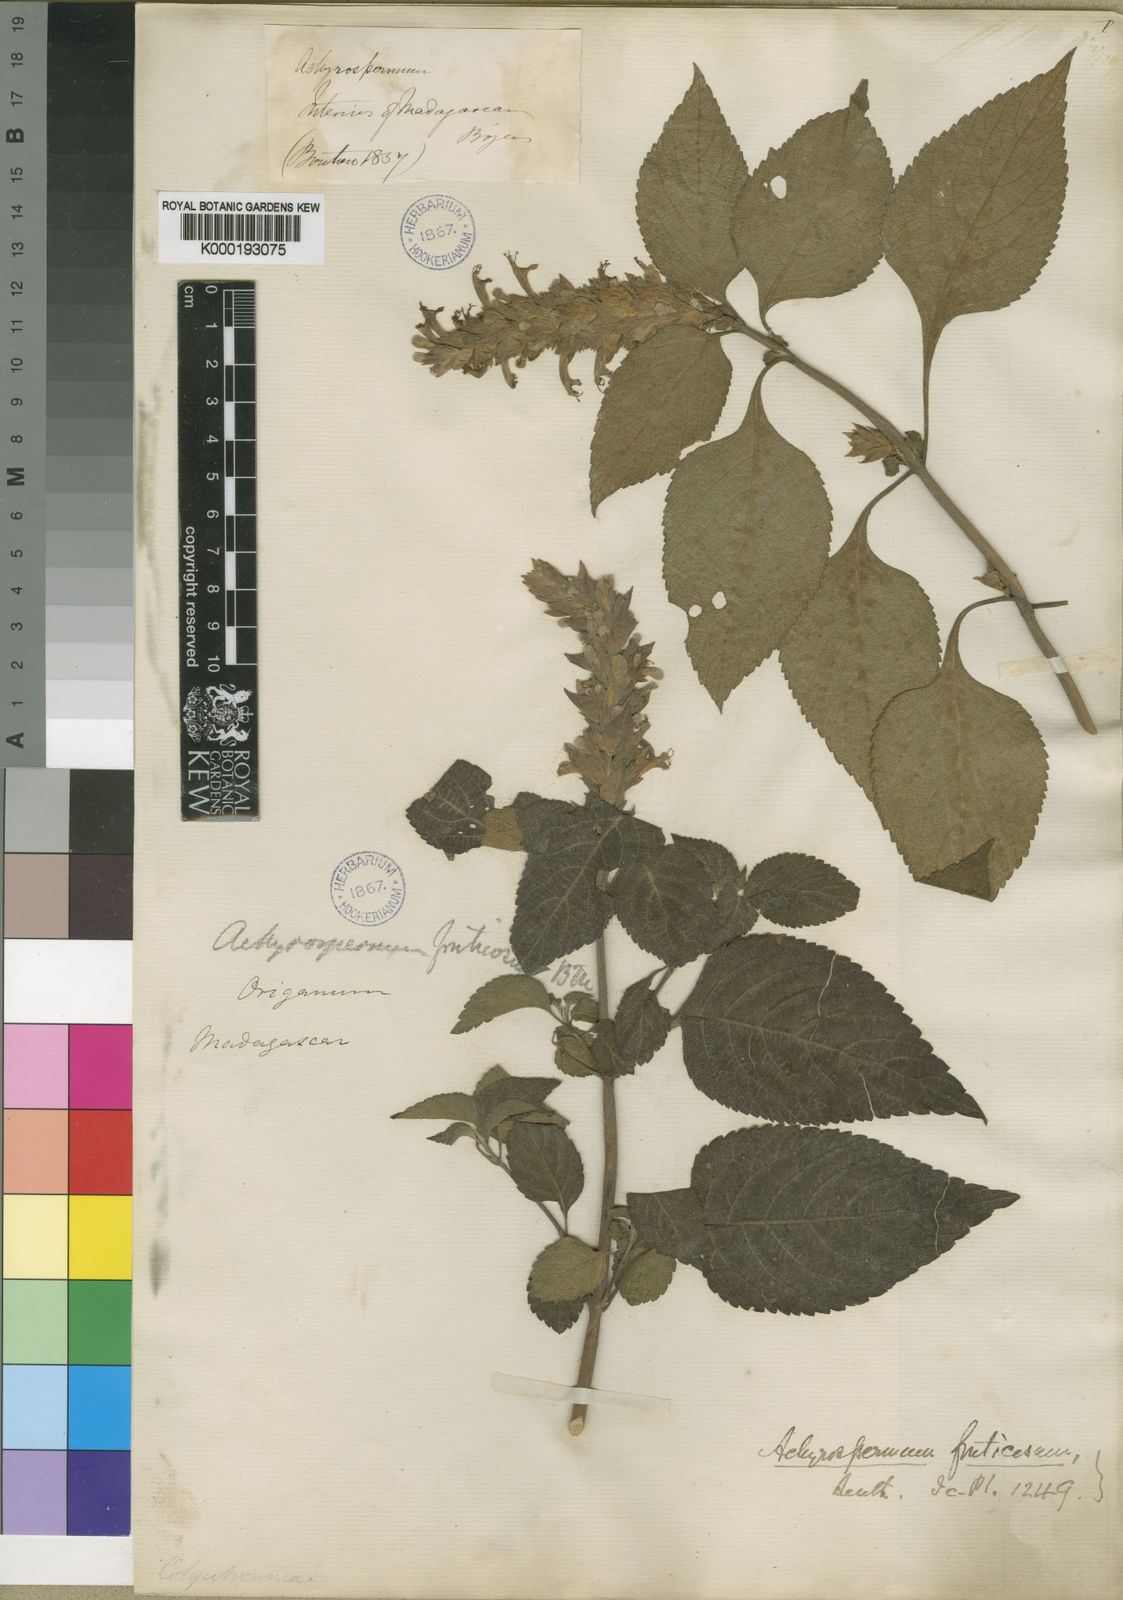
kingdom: Plantae
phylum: Tracheophyta
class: Magnoliopsida
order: Lamiales
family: Lamiaceae
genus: Achyrospermum
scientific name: Achyrospermum fruticosum
